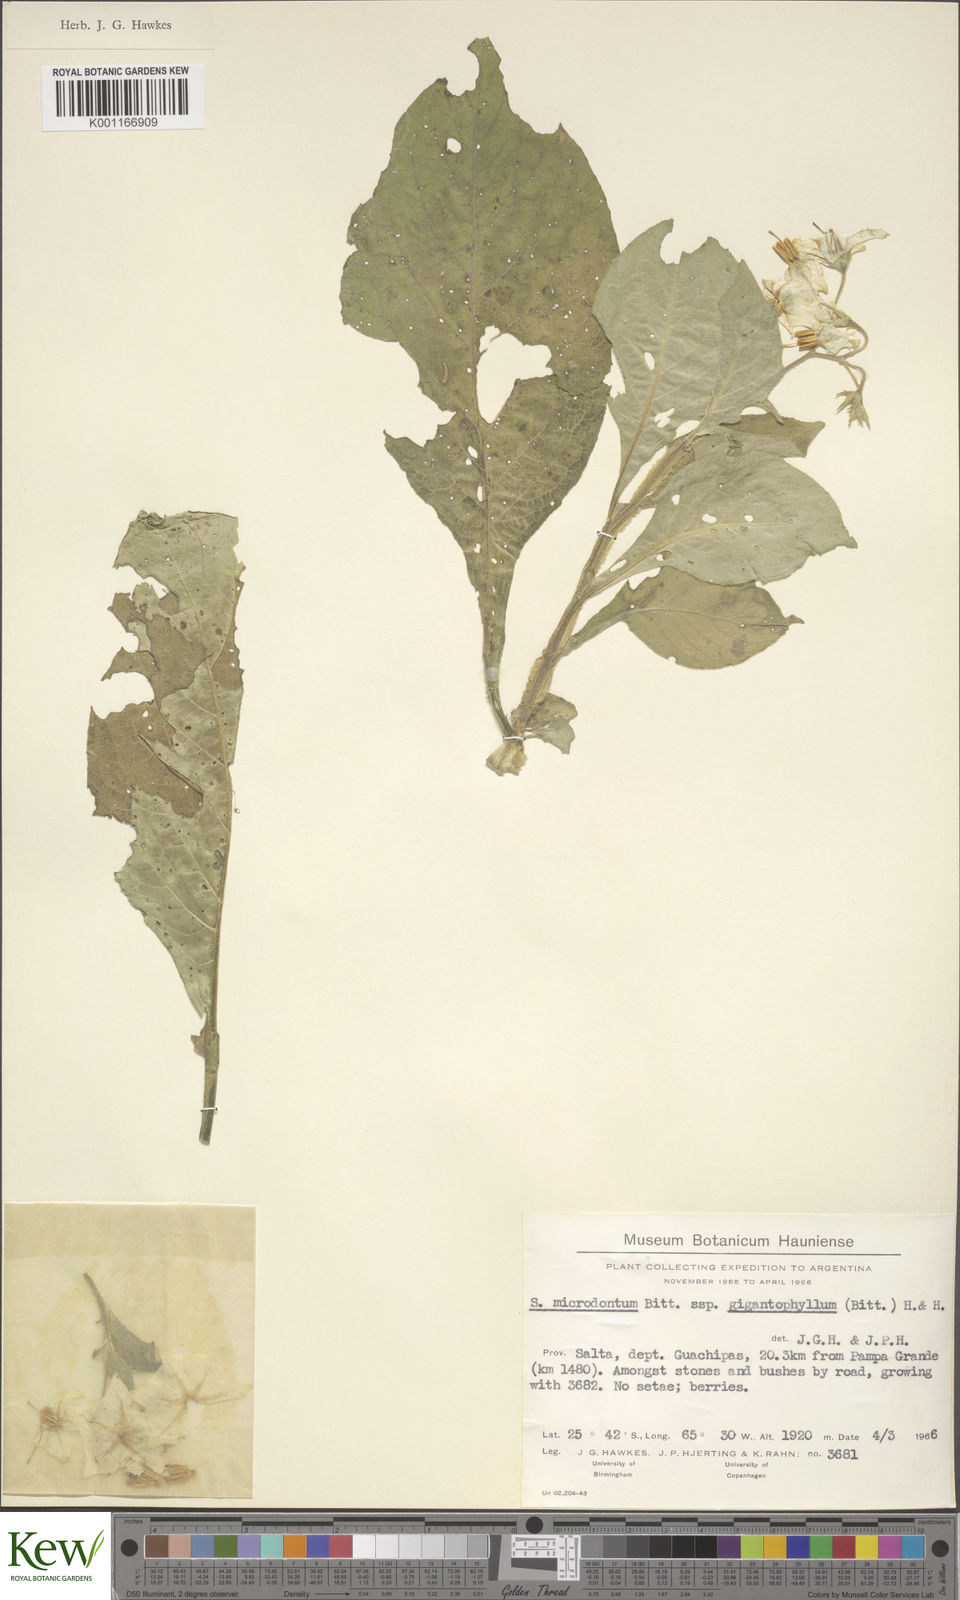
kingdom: Plantae
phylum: Tracheophyta
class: Magnoliopsida
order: Solanales
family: Solanaceae
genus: Solanum
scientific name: Solanum microdontum
